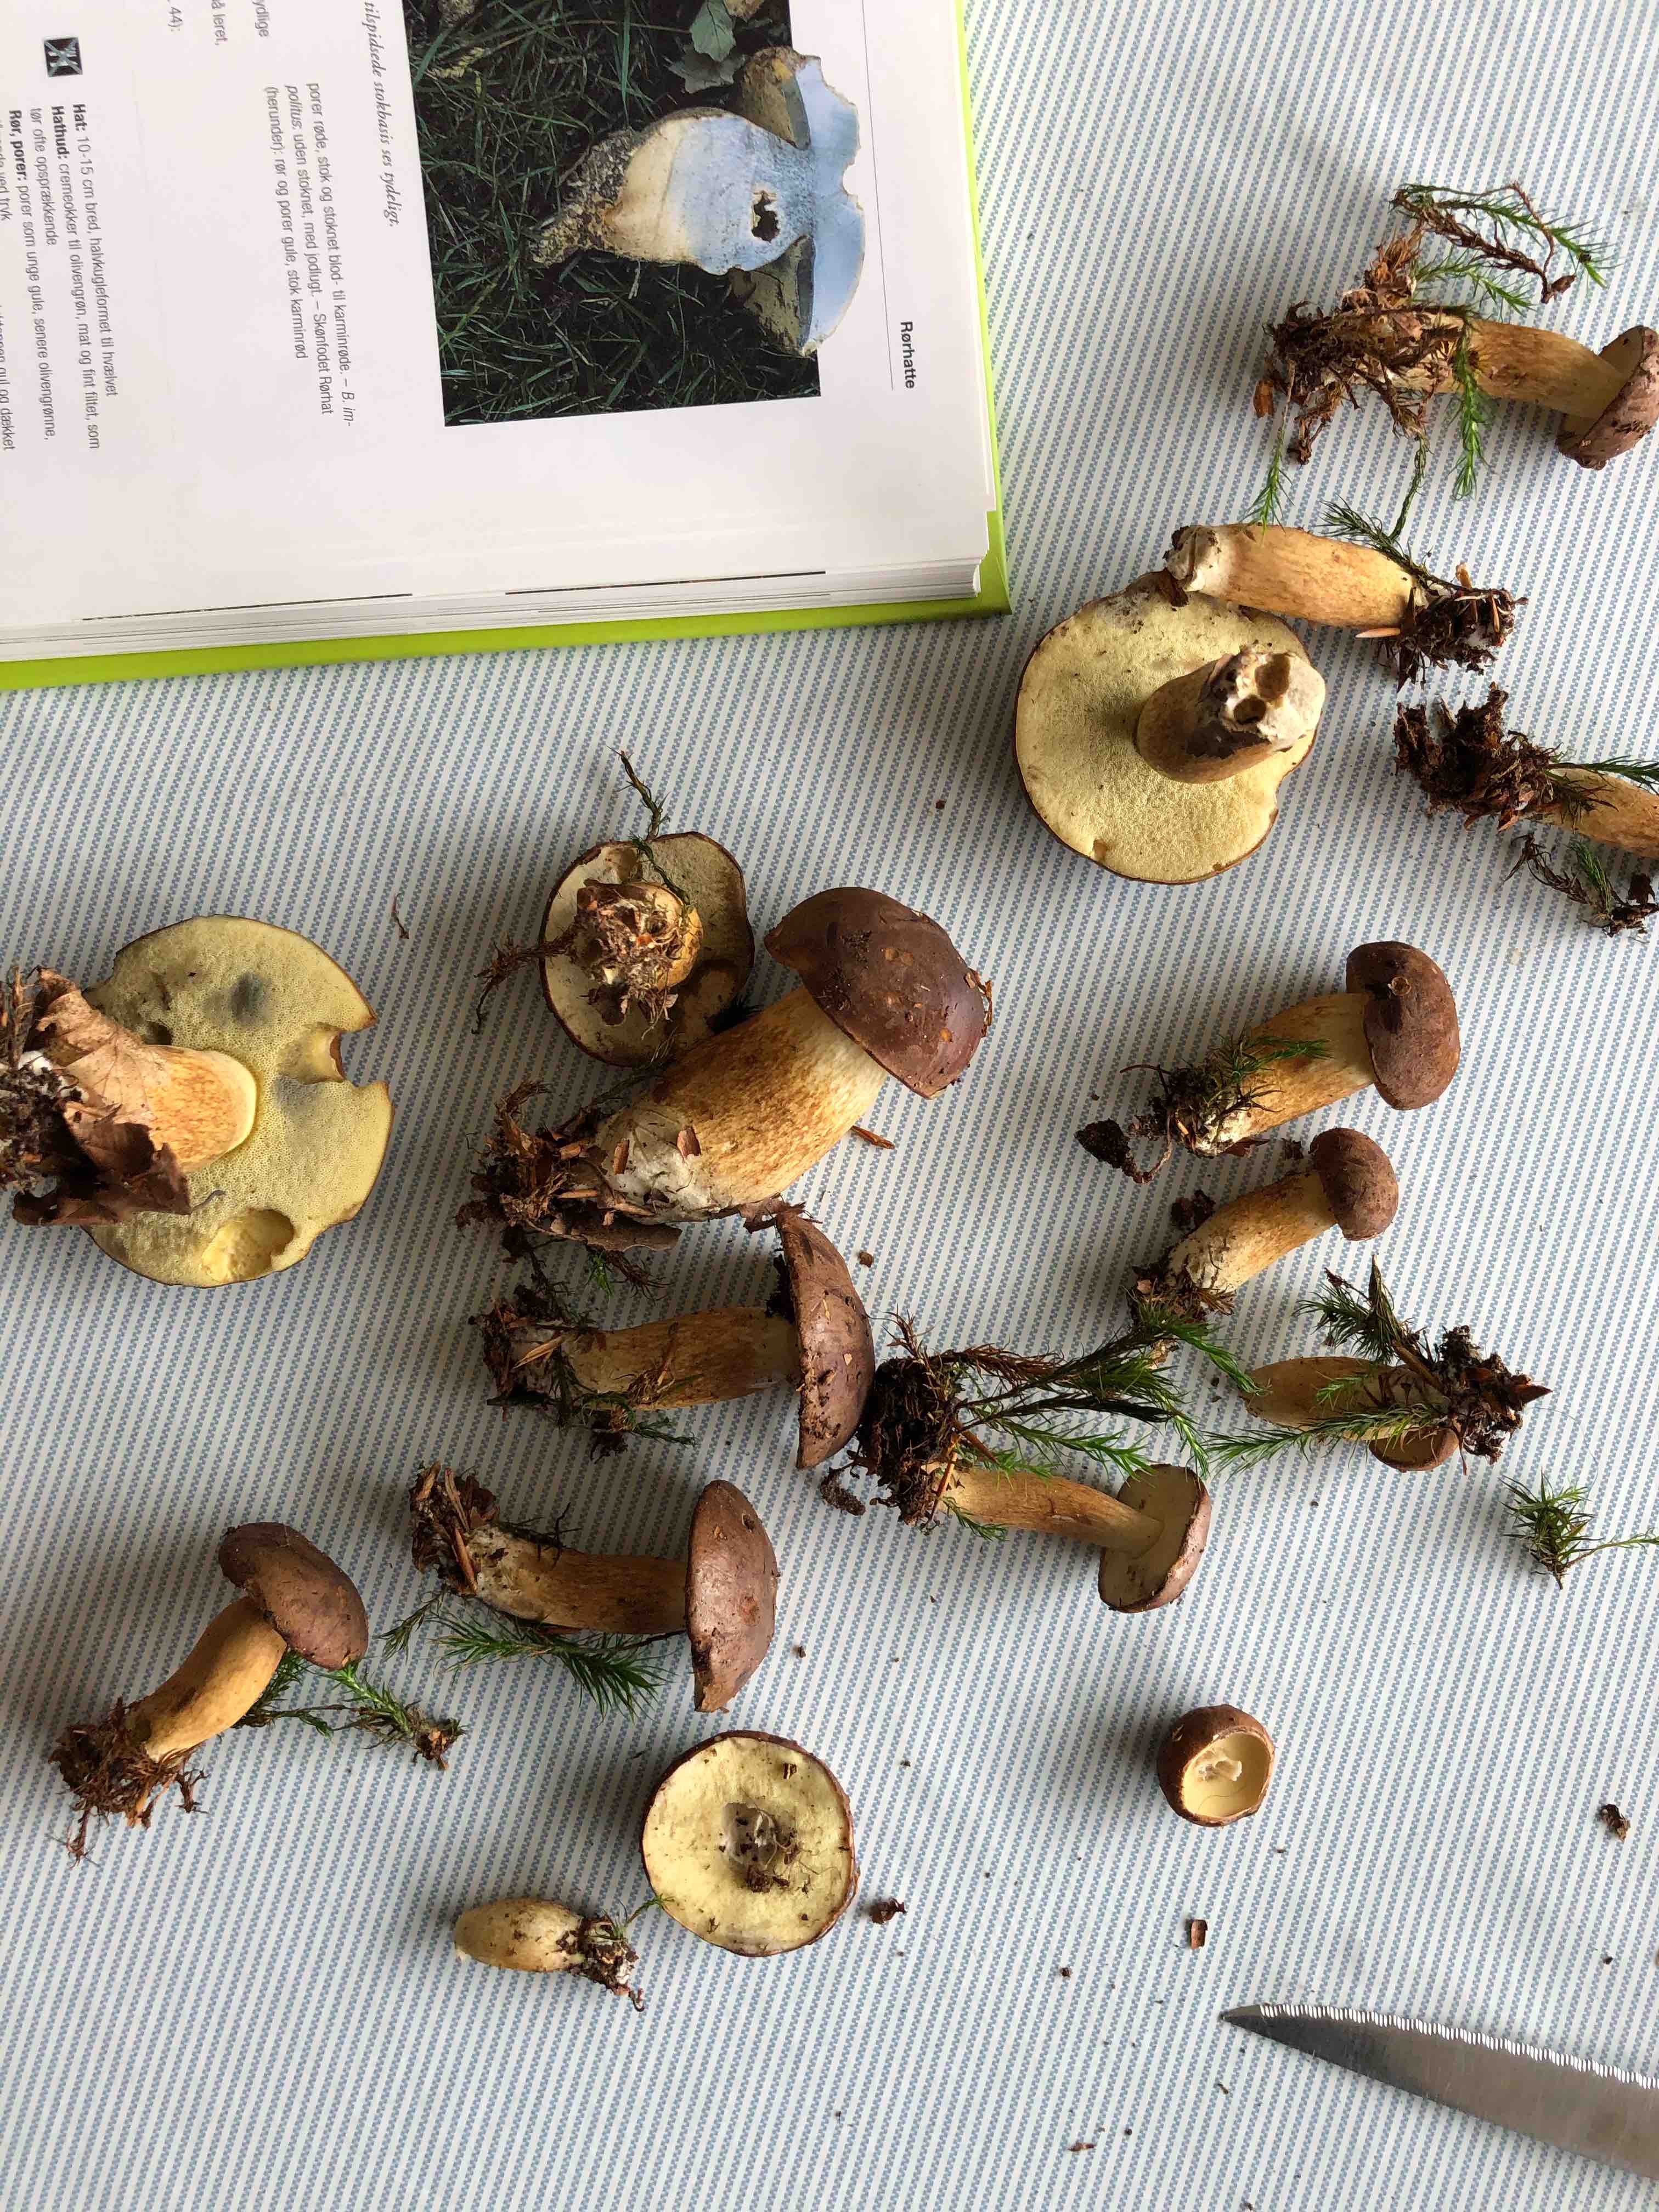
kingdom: Fungi
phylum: Basidiomycota
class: Agaricomycetes
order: Boletales
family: Boletaceae
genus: Imleria
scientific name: Imleria badia
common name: brunstokket rørhat
